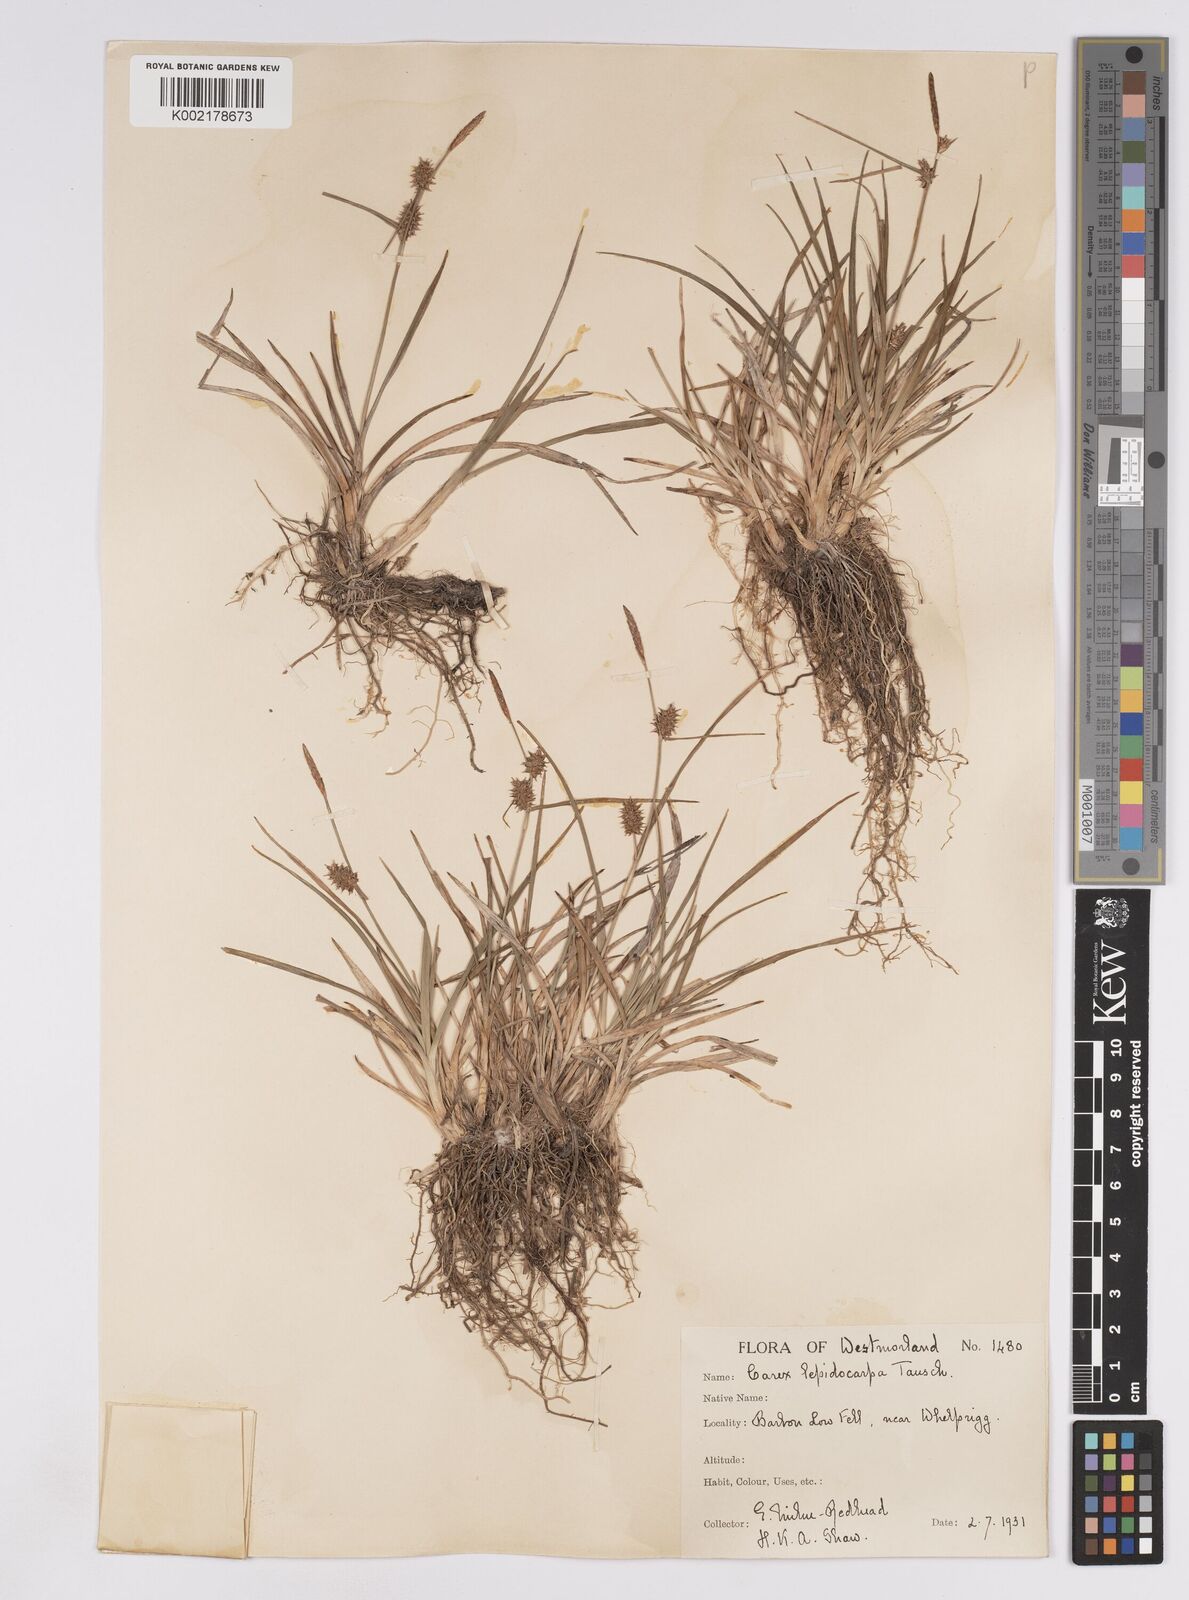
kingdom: Plantae
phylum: Tracheophyta
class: Liliopsida
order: Poales
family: Cyperaceae
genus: Carex
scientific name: Carex lepidocarpa
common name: Long-stalked yellow-sedge
